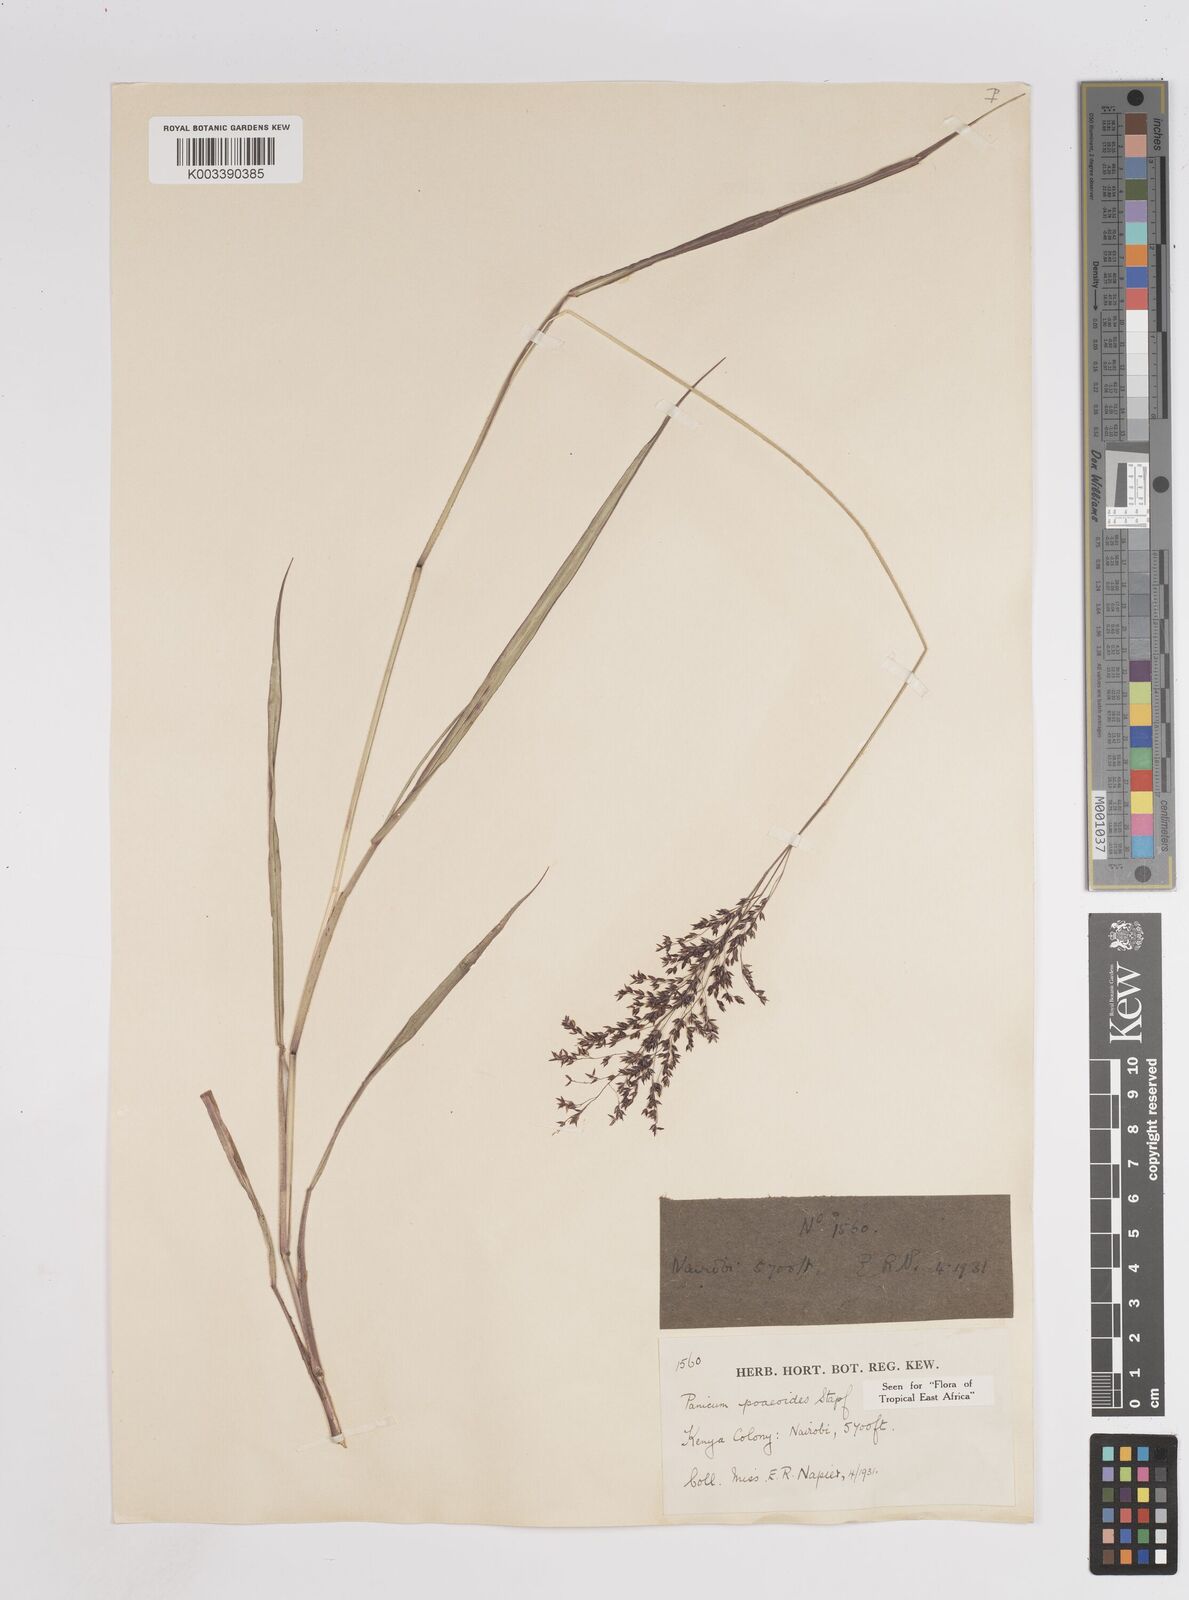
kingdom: Plantae
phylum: Tracheophyta
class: Liliopsida
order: Poales
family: Poaceae
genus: Panicum
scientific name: Panicum
